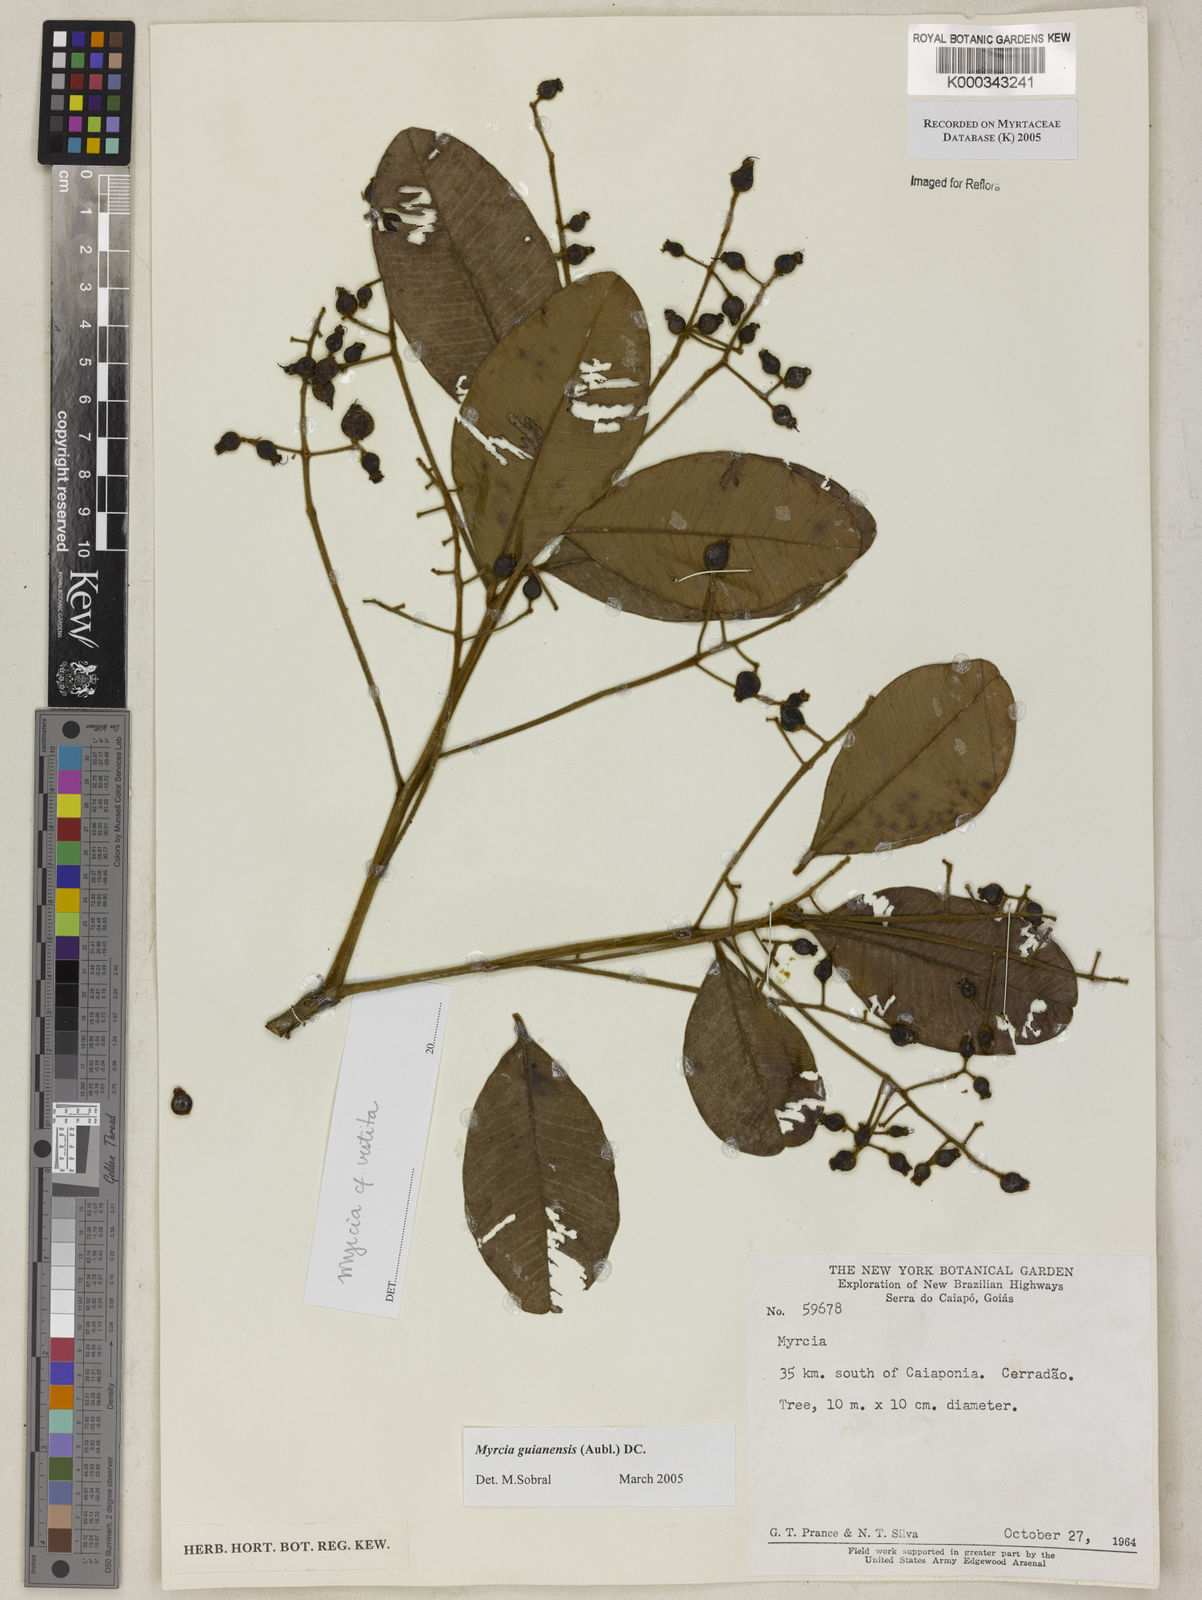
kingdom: Plantae
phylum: Tracheophyta
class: Magnoliopsida
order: Myrtales
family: Myrtaceae
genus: Myrcia
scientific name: Myrcia guianensis
